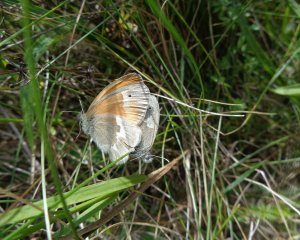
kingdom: Animalia
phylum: Arthropoda
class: Insecta
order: Lepidoptera
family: Nymphalidae
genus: Coenonympha
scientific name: Coenonympha tullia
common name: Large Heath
